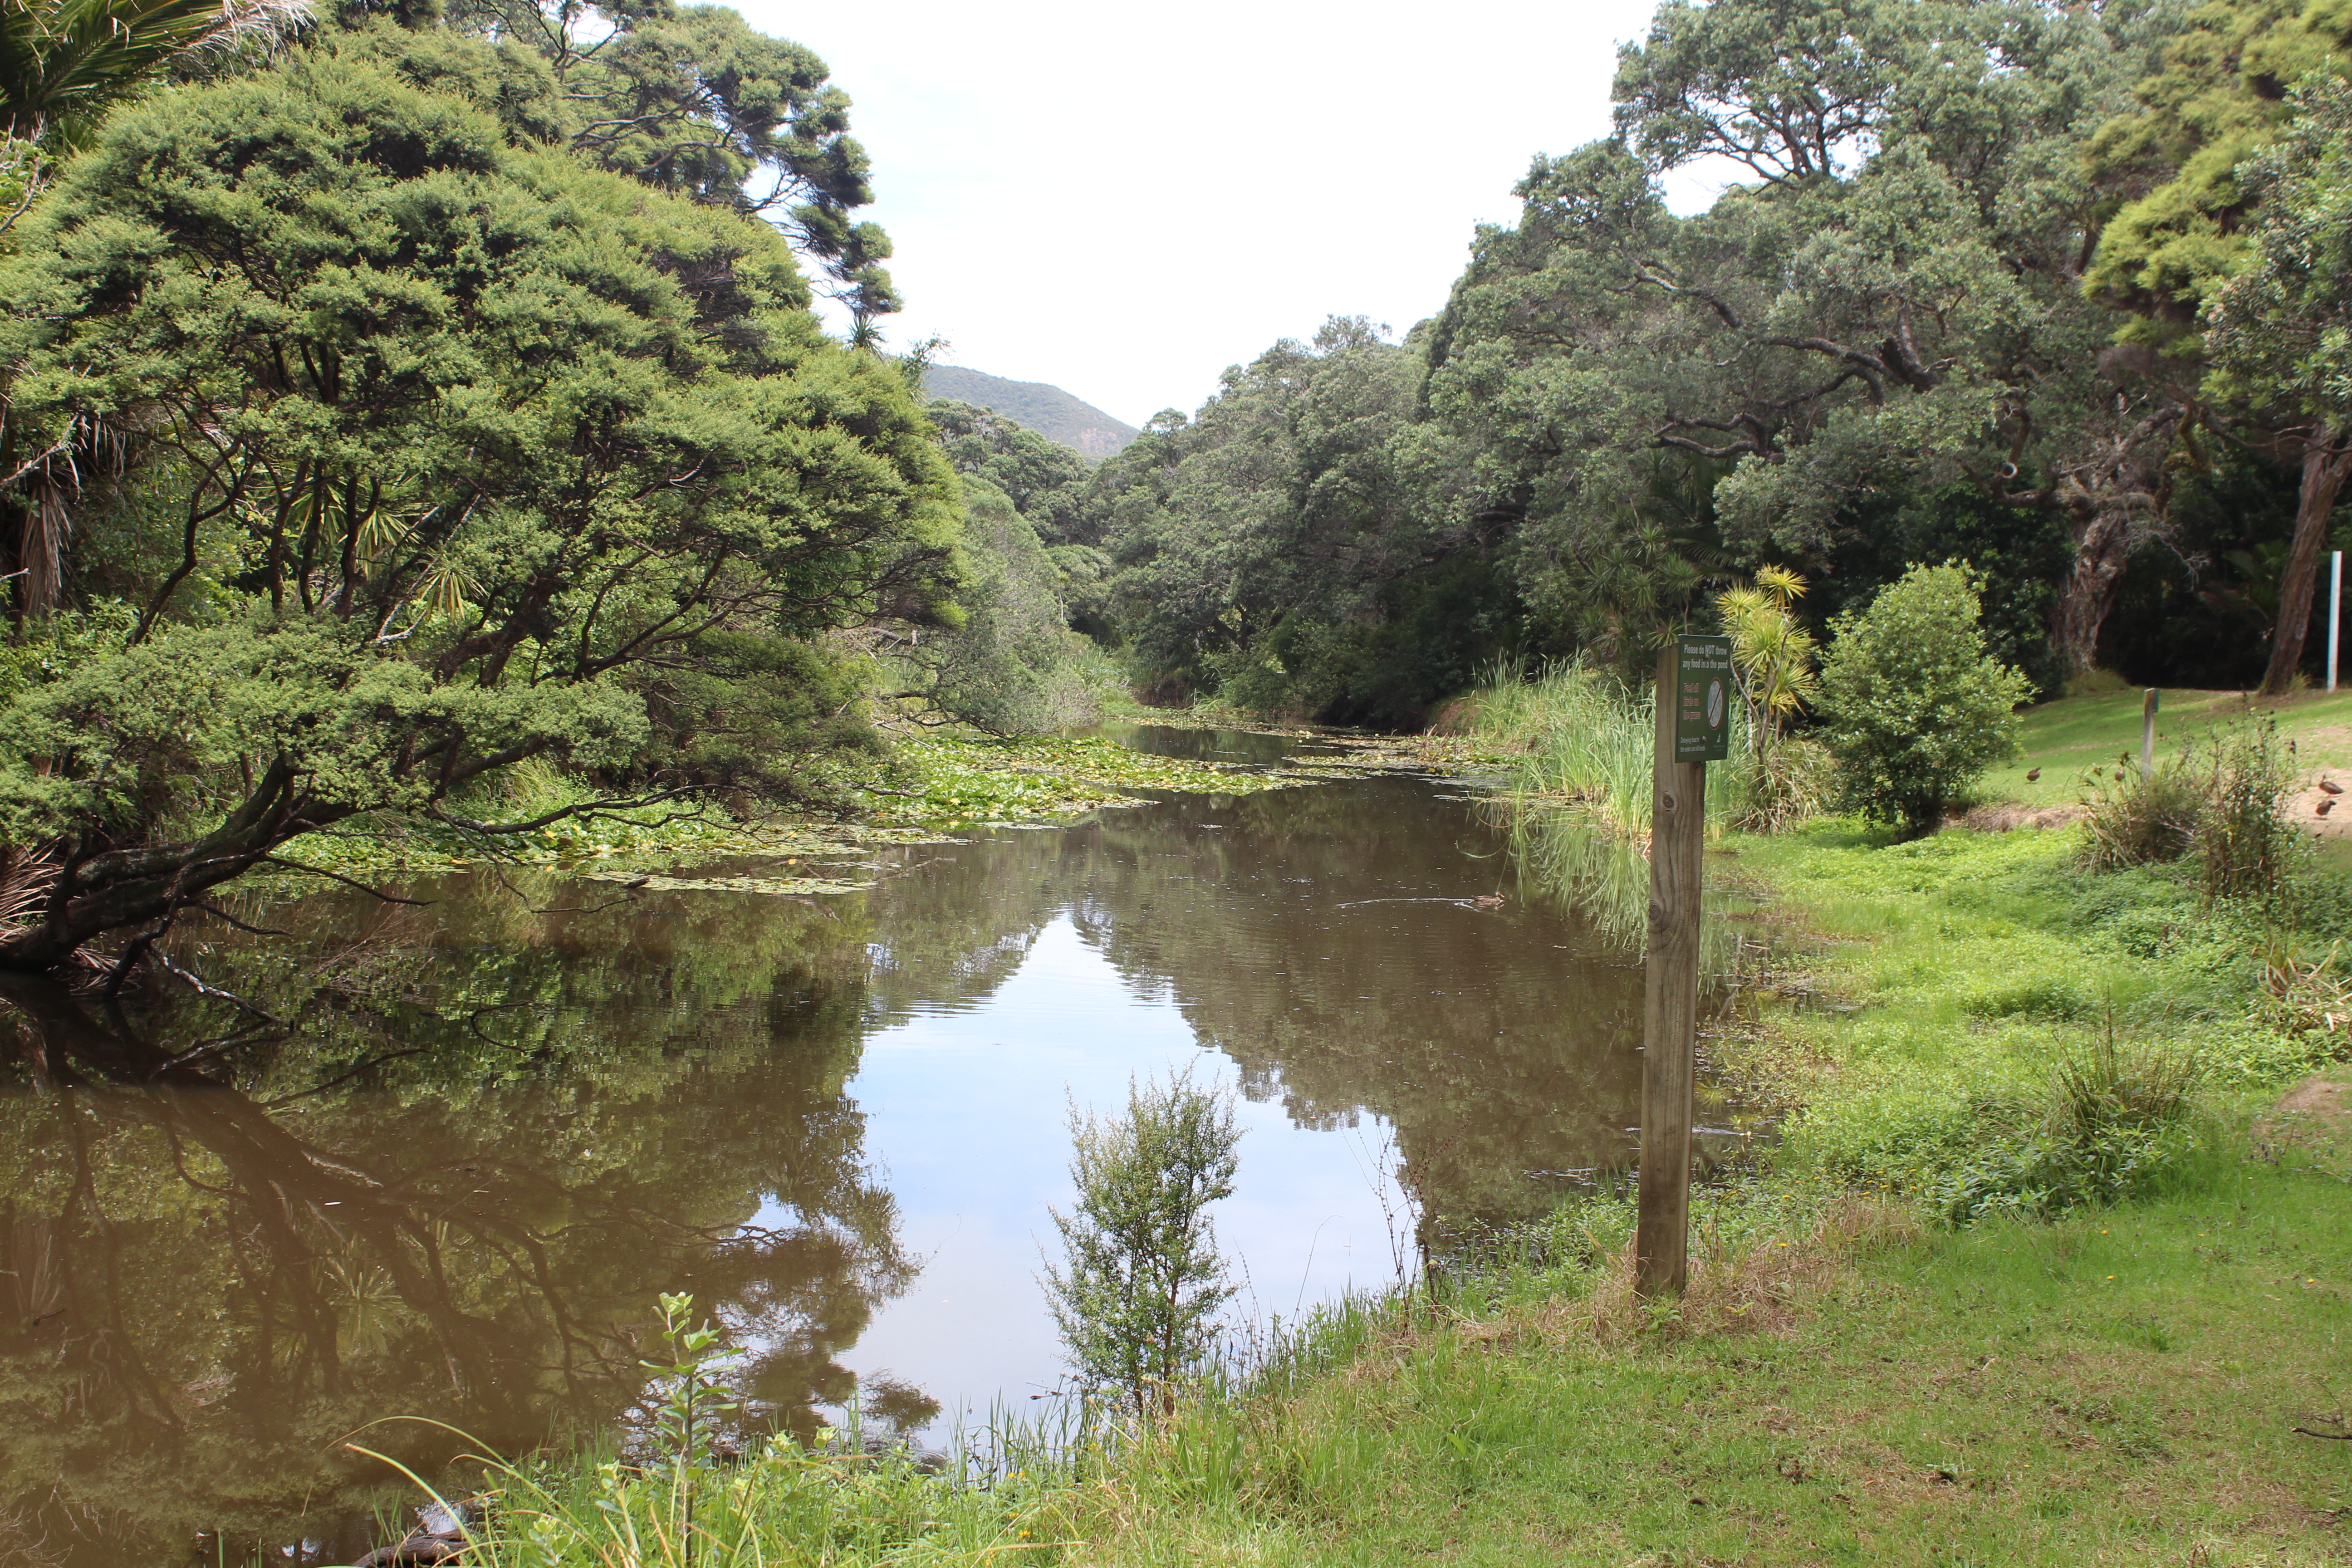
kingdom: Animalia
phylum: Arthropoda
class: Insecta
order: Odonata
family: Coenagrionidae
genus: Ischnura
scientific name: Ischnura
